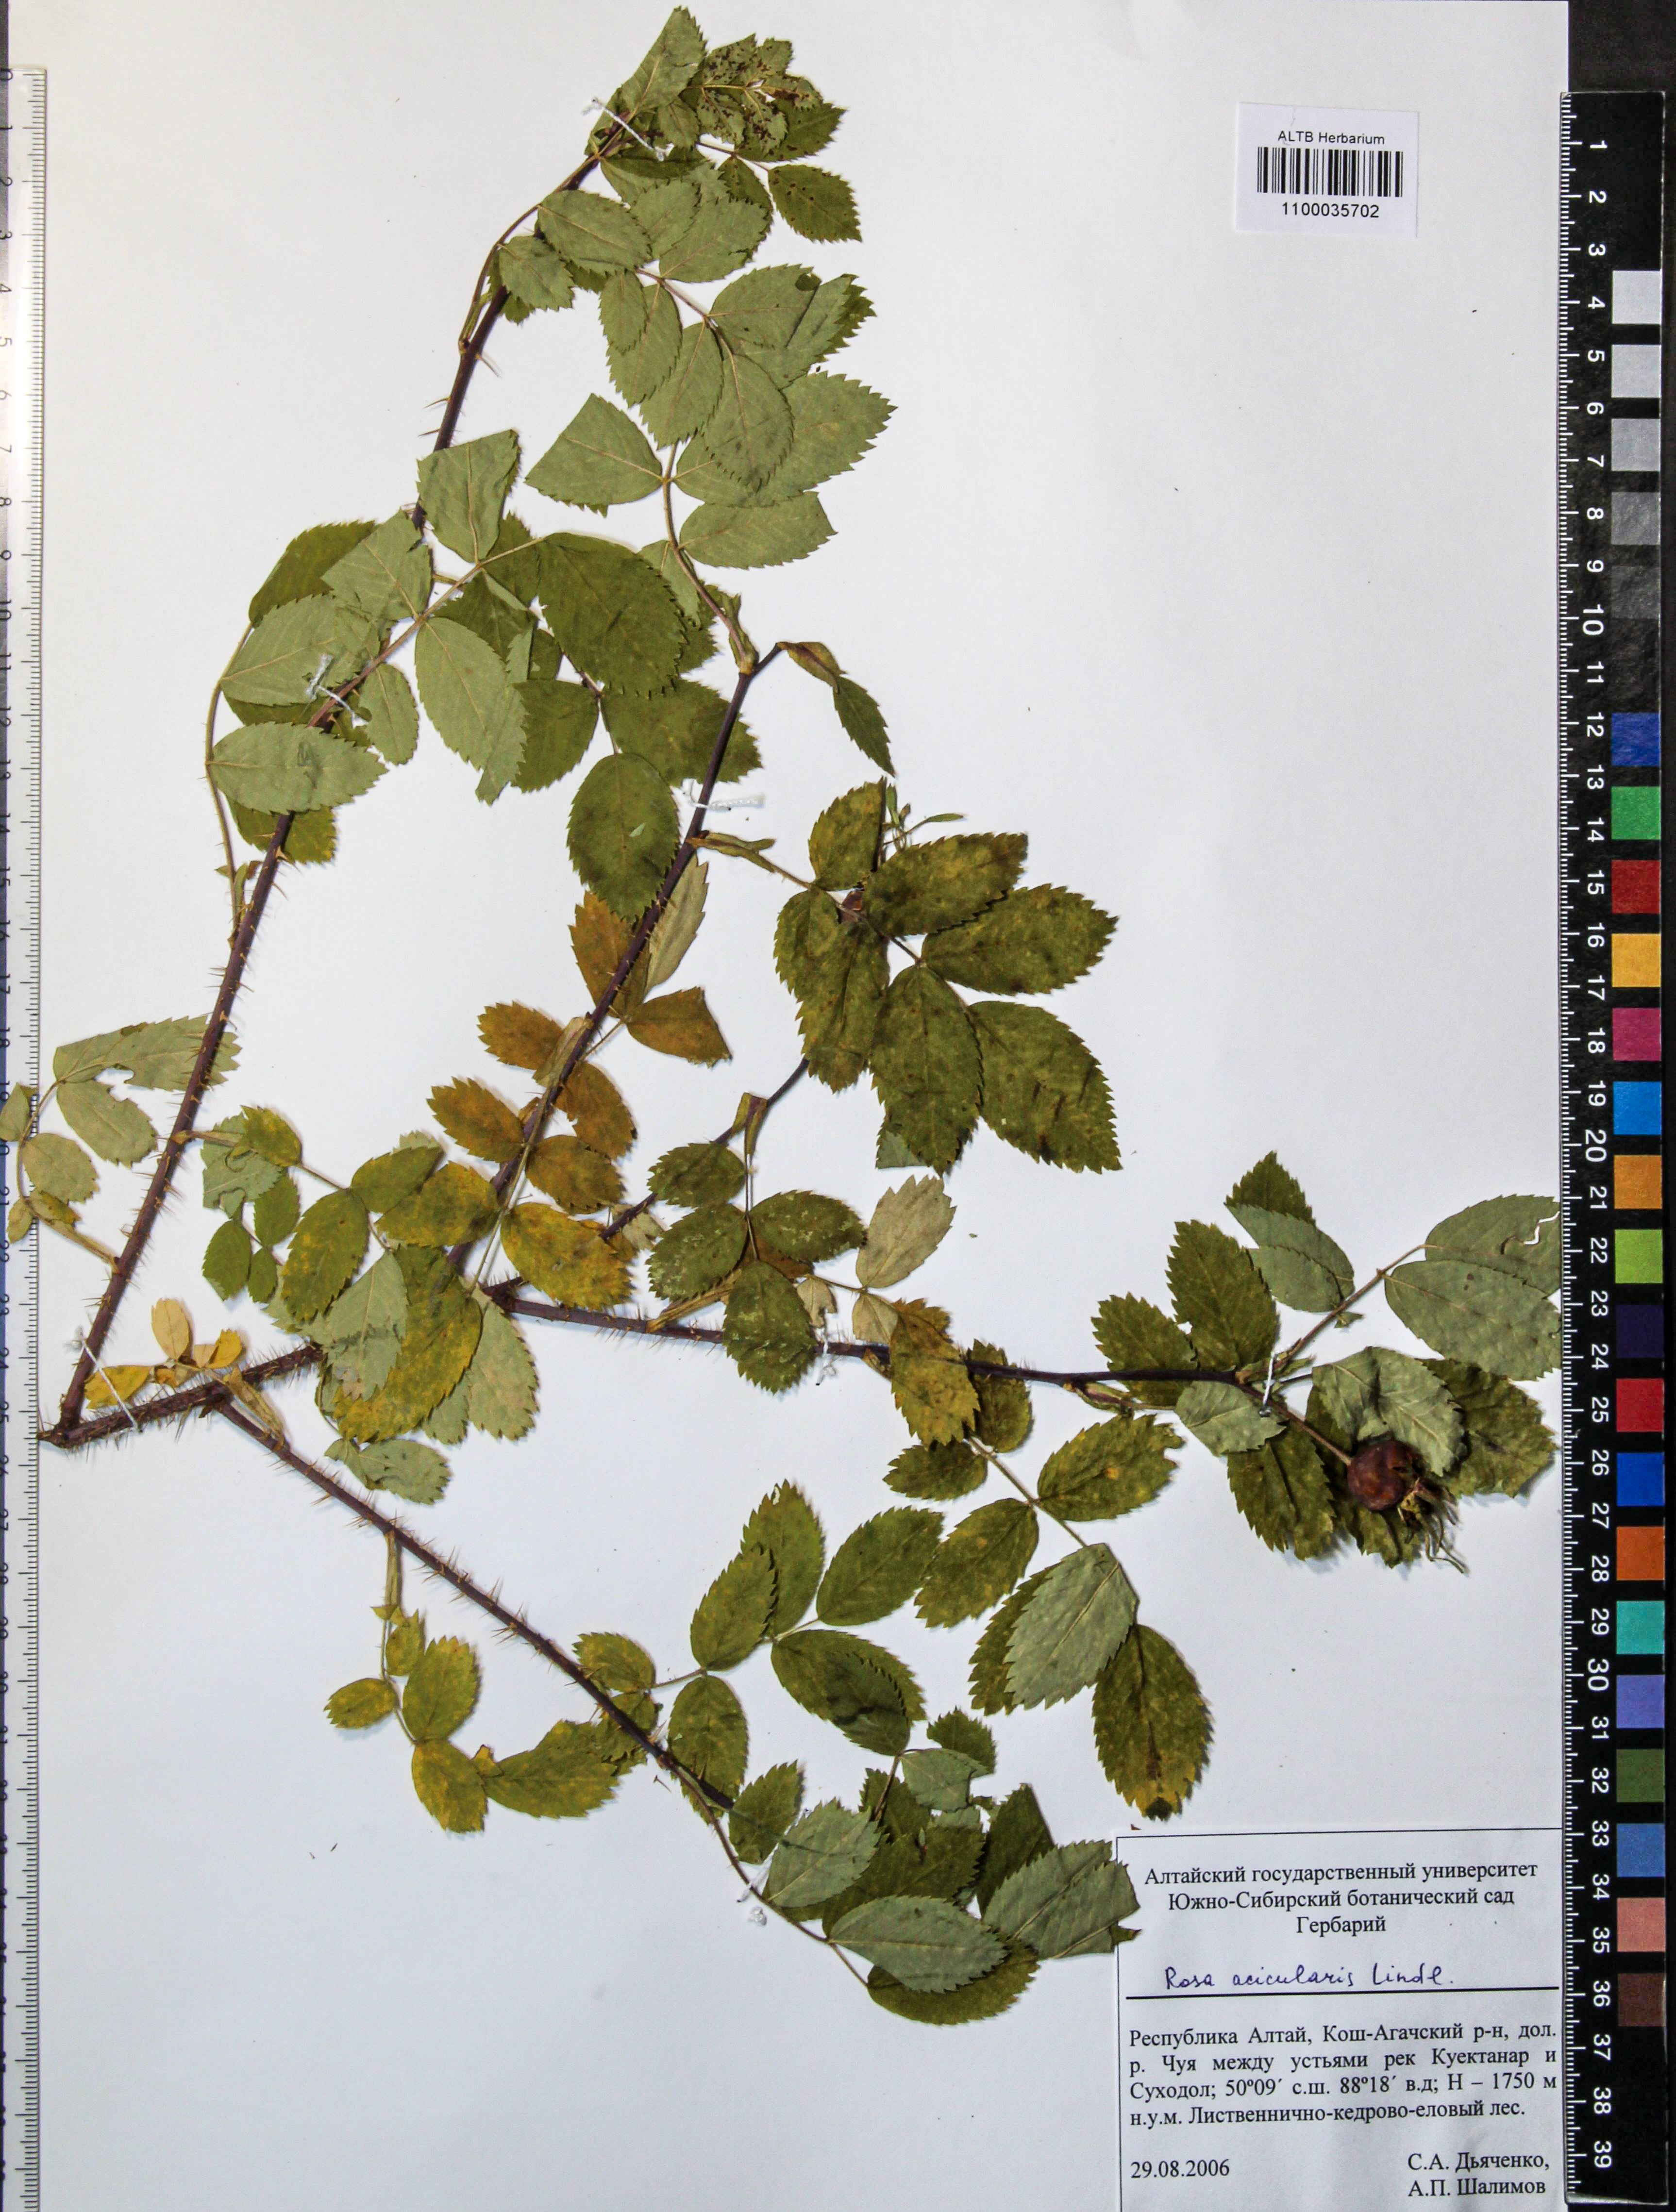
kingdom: Plantae
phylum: Tracheophyta
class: Magnoliopsida
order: Rosales
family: Rosaceae
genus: Rosa
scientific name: Rosa acicularis
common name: Prickly rose
